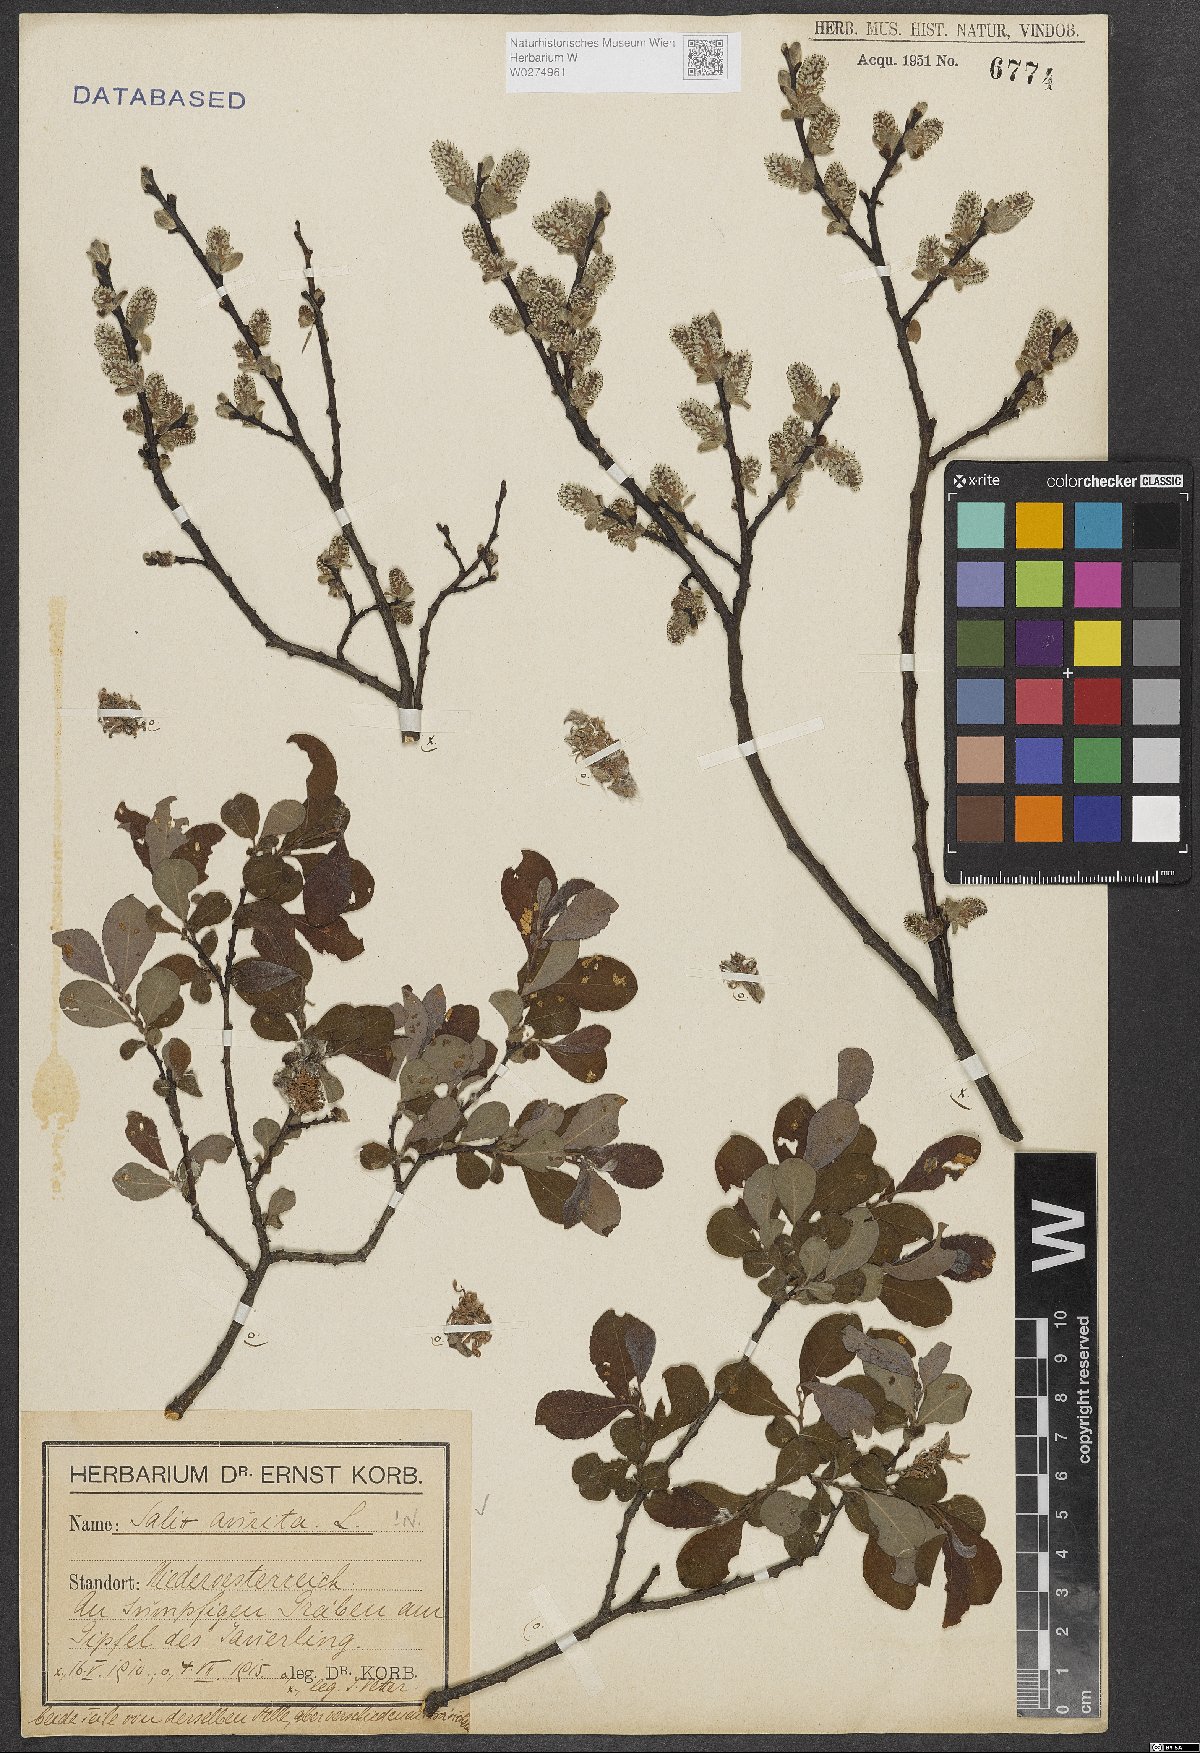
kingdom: Plantae
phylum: Tracheophyta
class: Magnoliopsida
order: Malpighiales
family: Salicaceae
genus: Salix
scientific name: Salix aurita
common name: Eared willow
